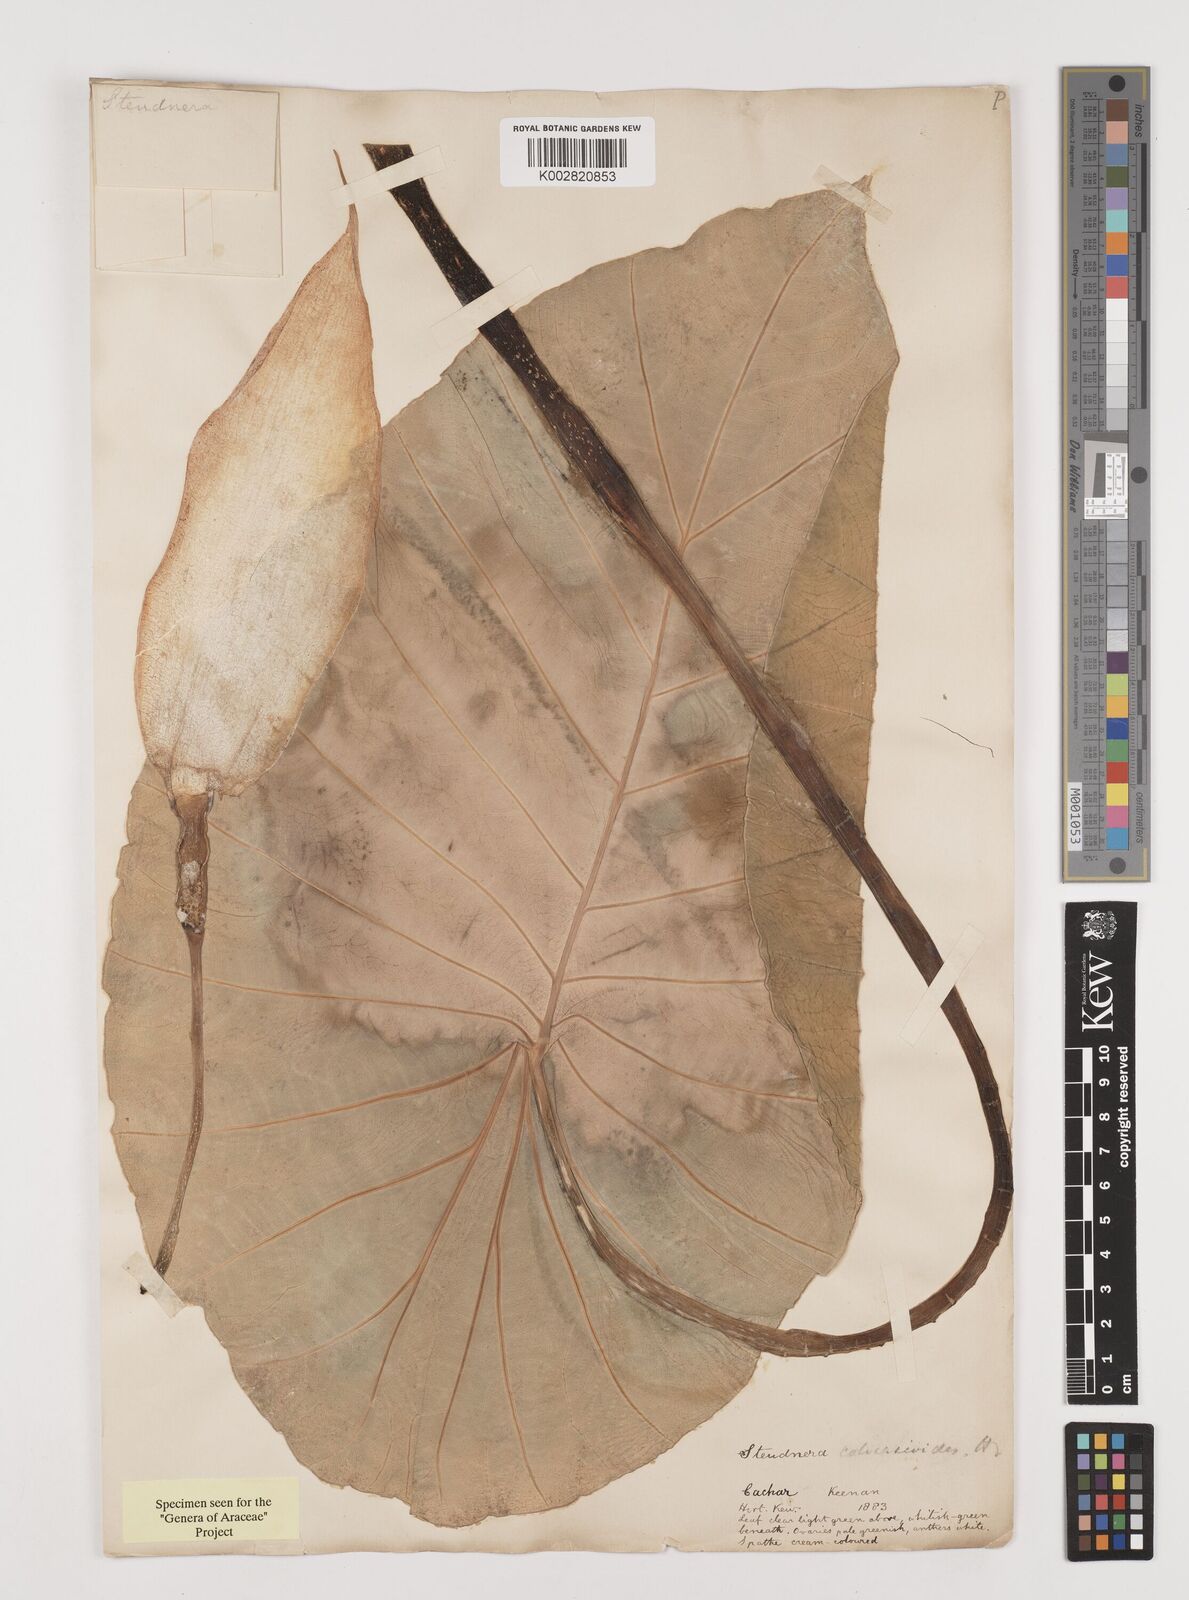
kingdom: Plantae
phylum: Tracheophyta
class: Liliopsida
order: Alismatales
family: Araceae
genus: Steudnera
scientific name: Steudnera colocasiifolia
